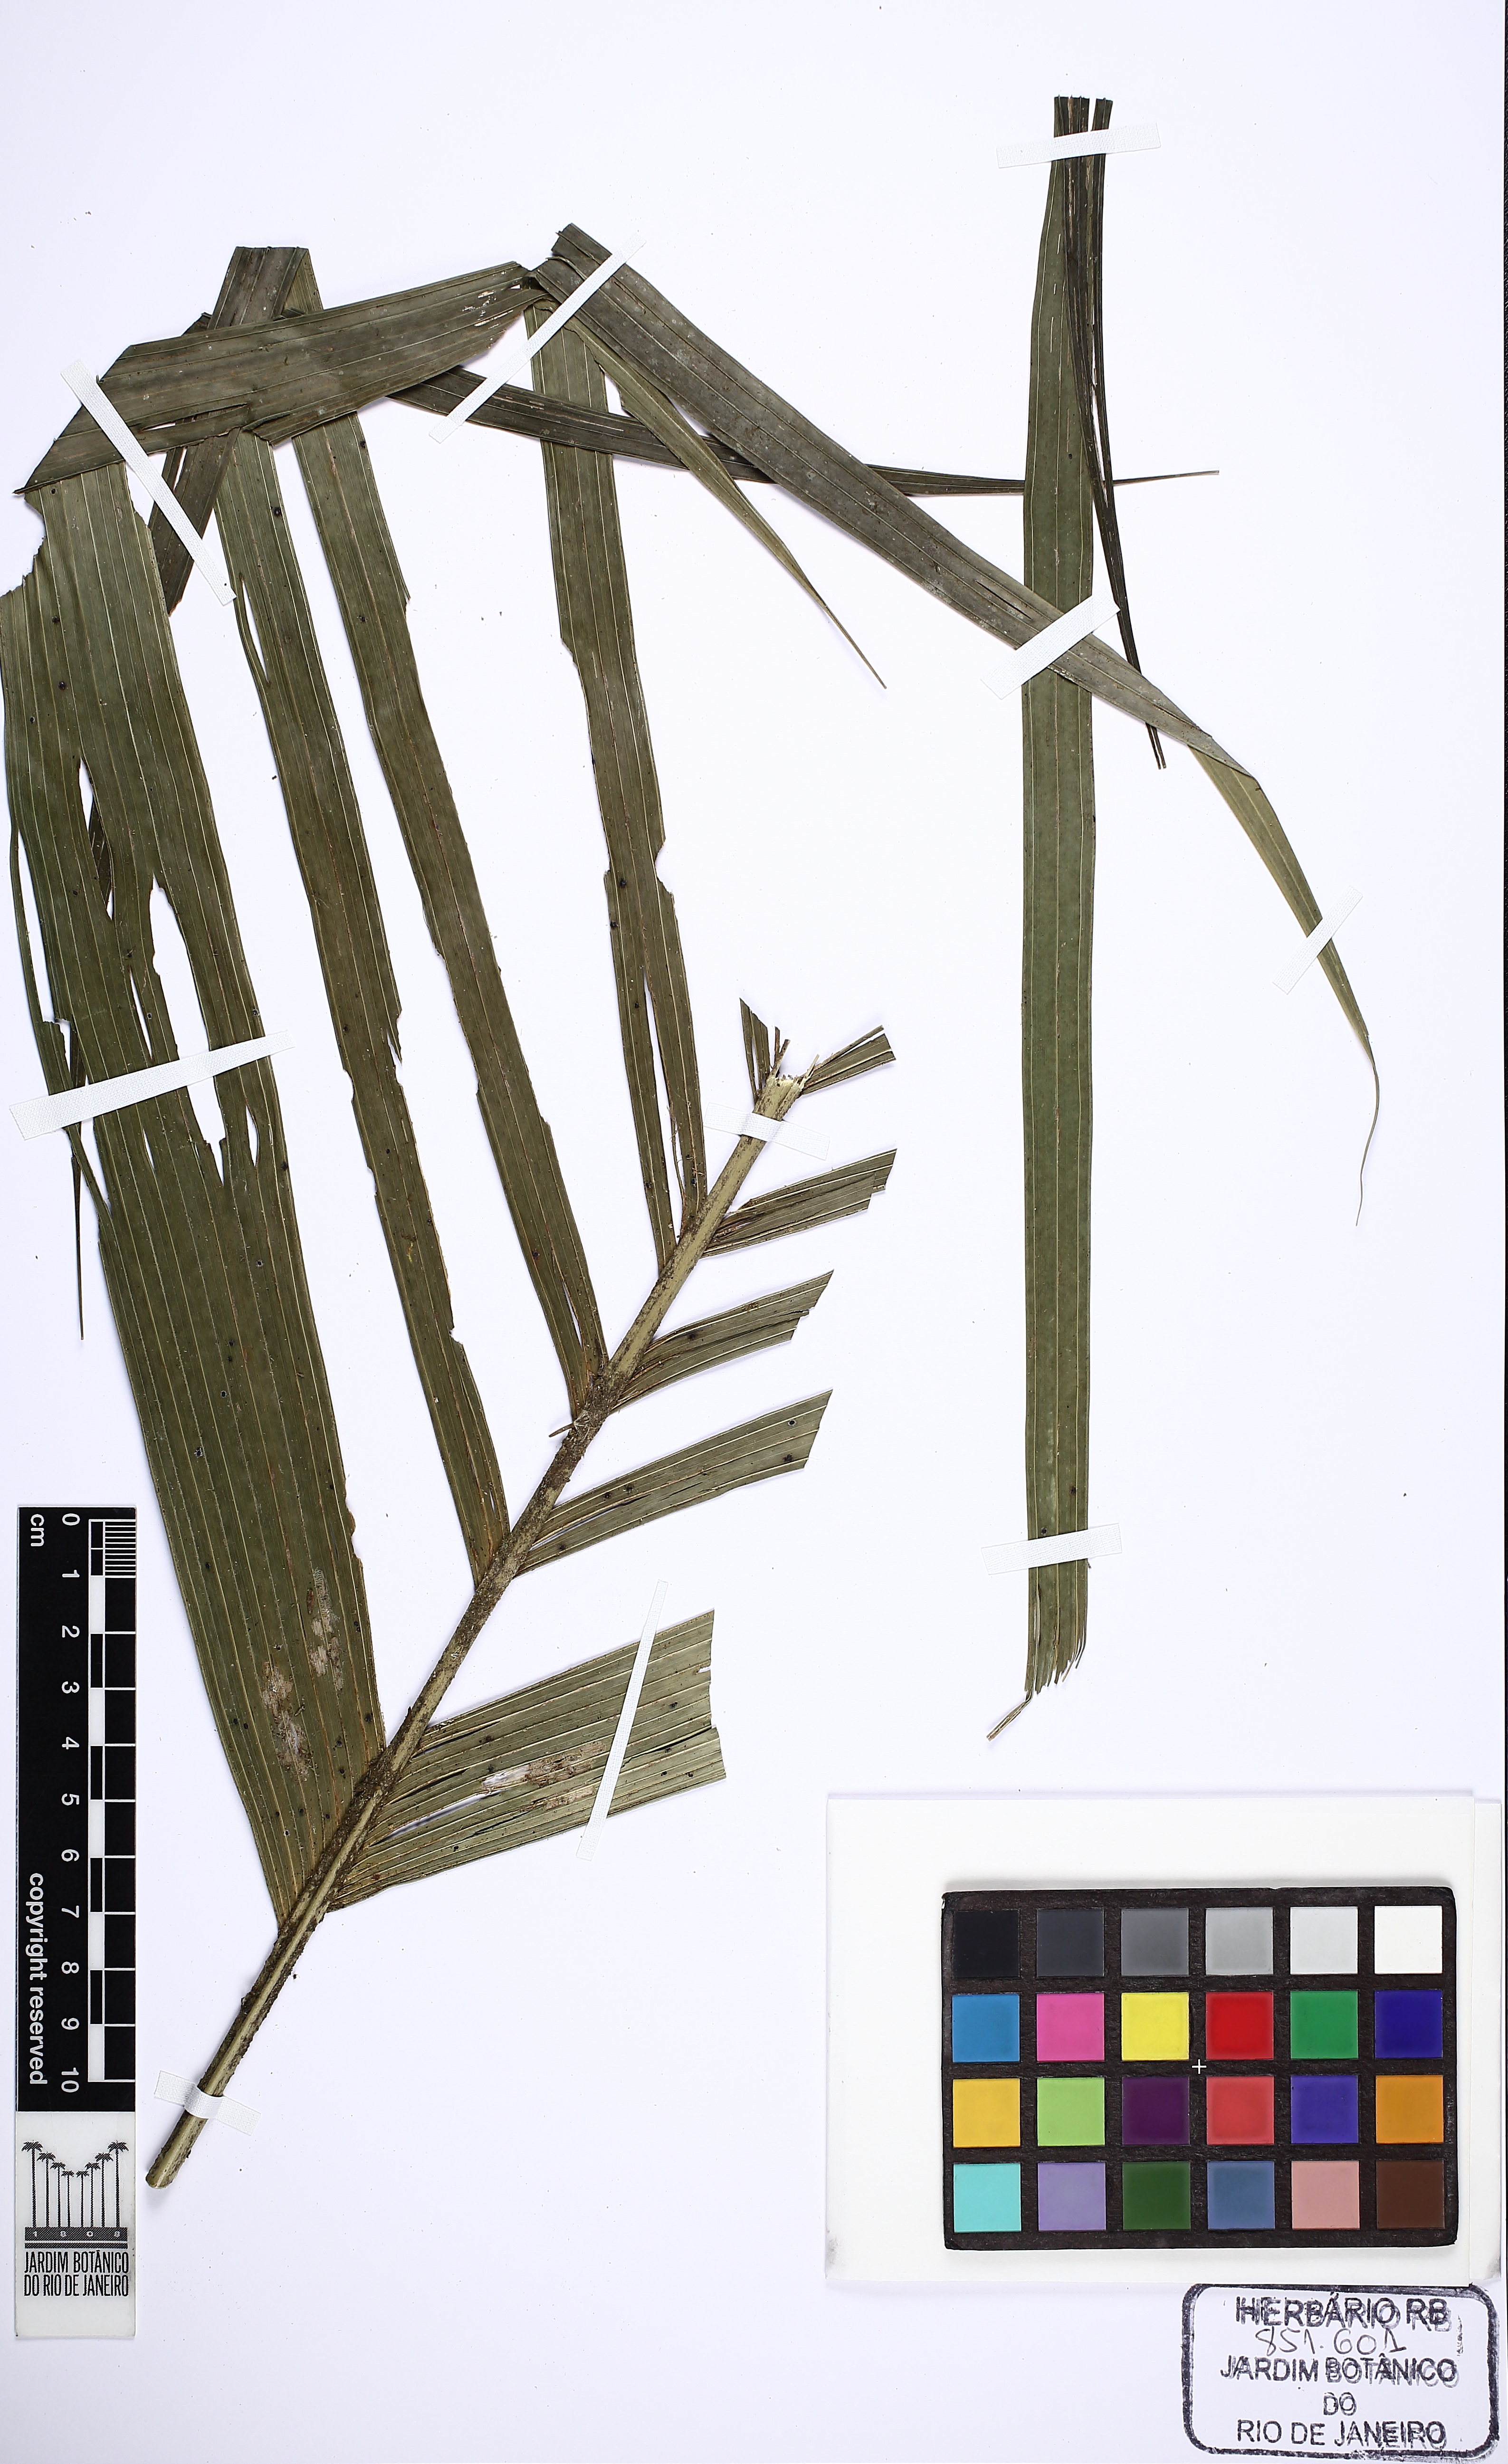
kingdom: Plantae
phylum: Tracheophyta
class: Liliopsida
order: Arecales
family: Arecaceae
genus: Geonoma
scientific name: Geonoma schottiana
